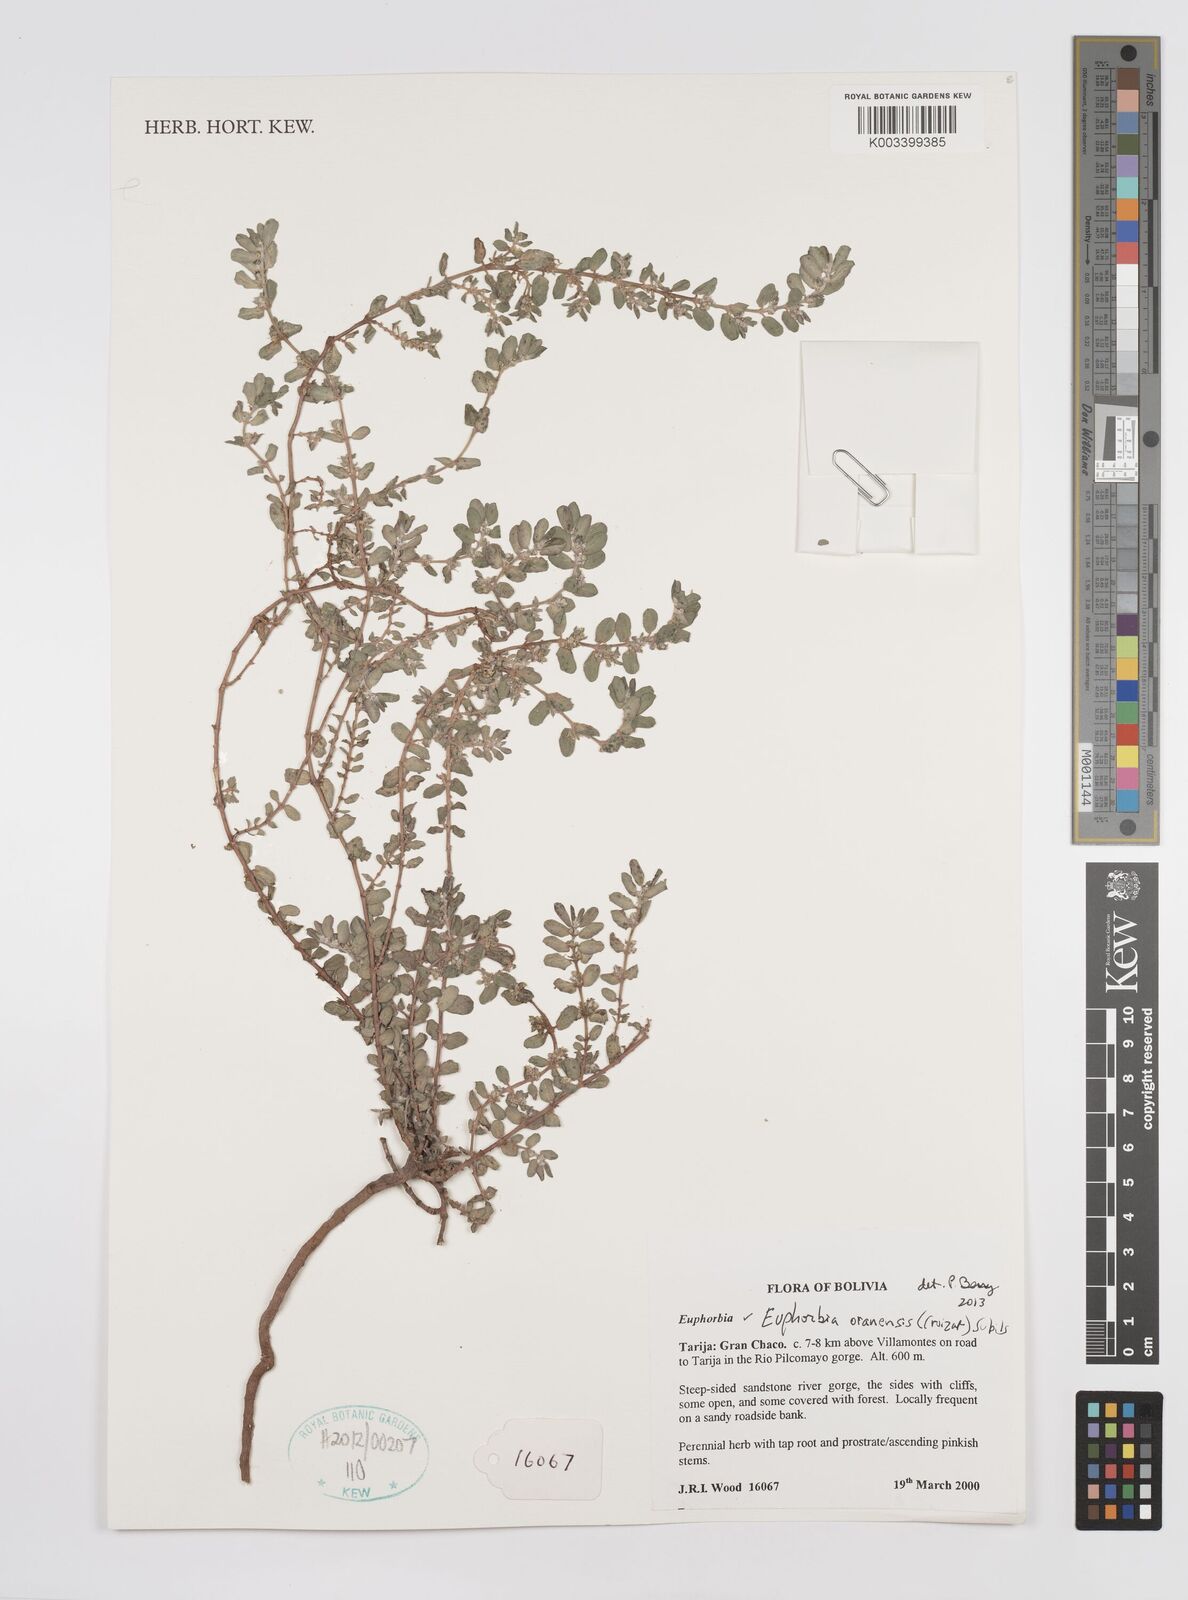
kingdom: Plantae
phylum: Tracheophyta
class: Magnoliopsida
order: Malpighiales
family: Euphorbiaceae
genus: Euphorbia
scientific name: Euphorbia oranensis
